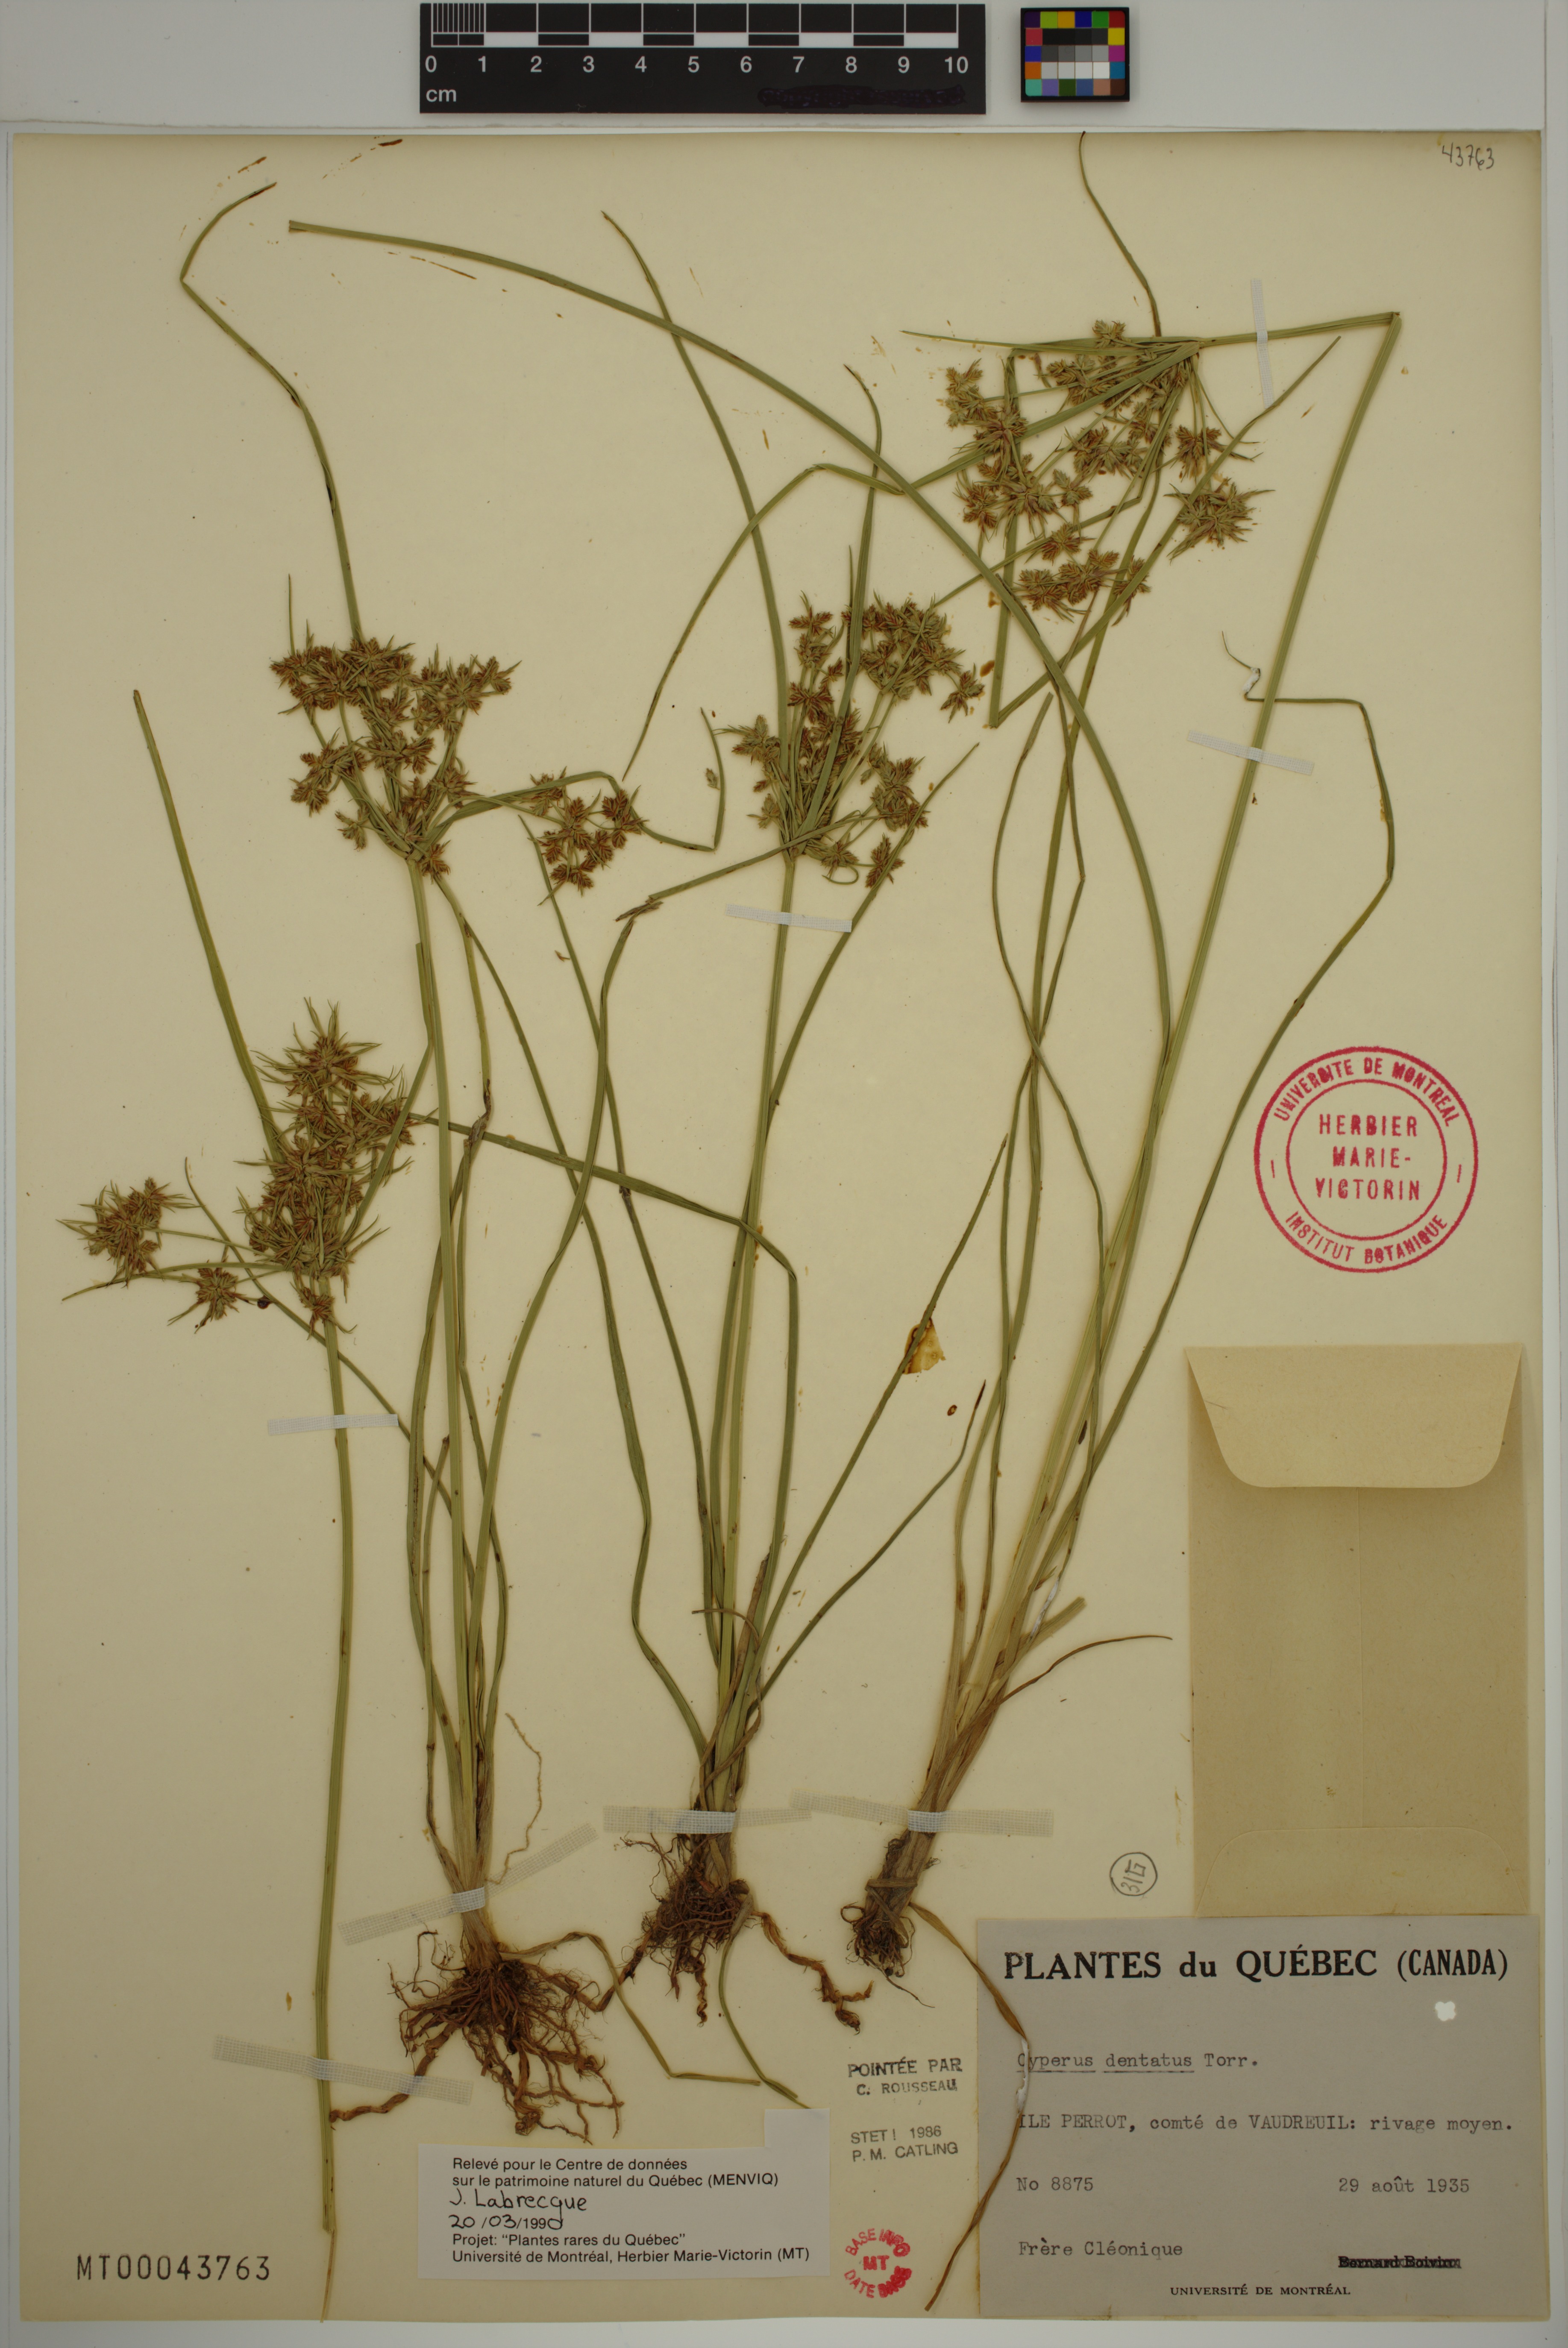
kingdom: Plantae
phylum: Tracheophyta
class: Liliopsida
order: Poales
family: Cyperaceae
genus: Cyperus
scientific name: Cyperus dentatus
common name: Dentate umbrella sedge
